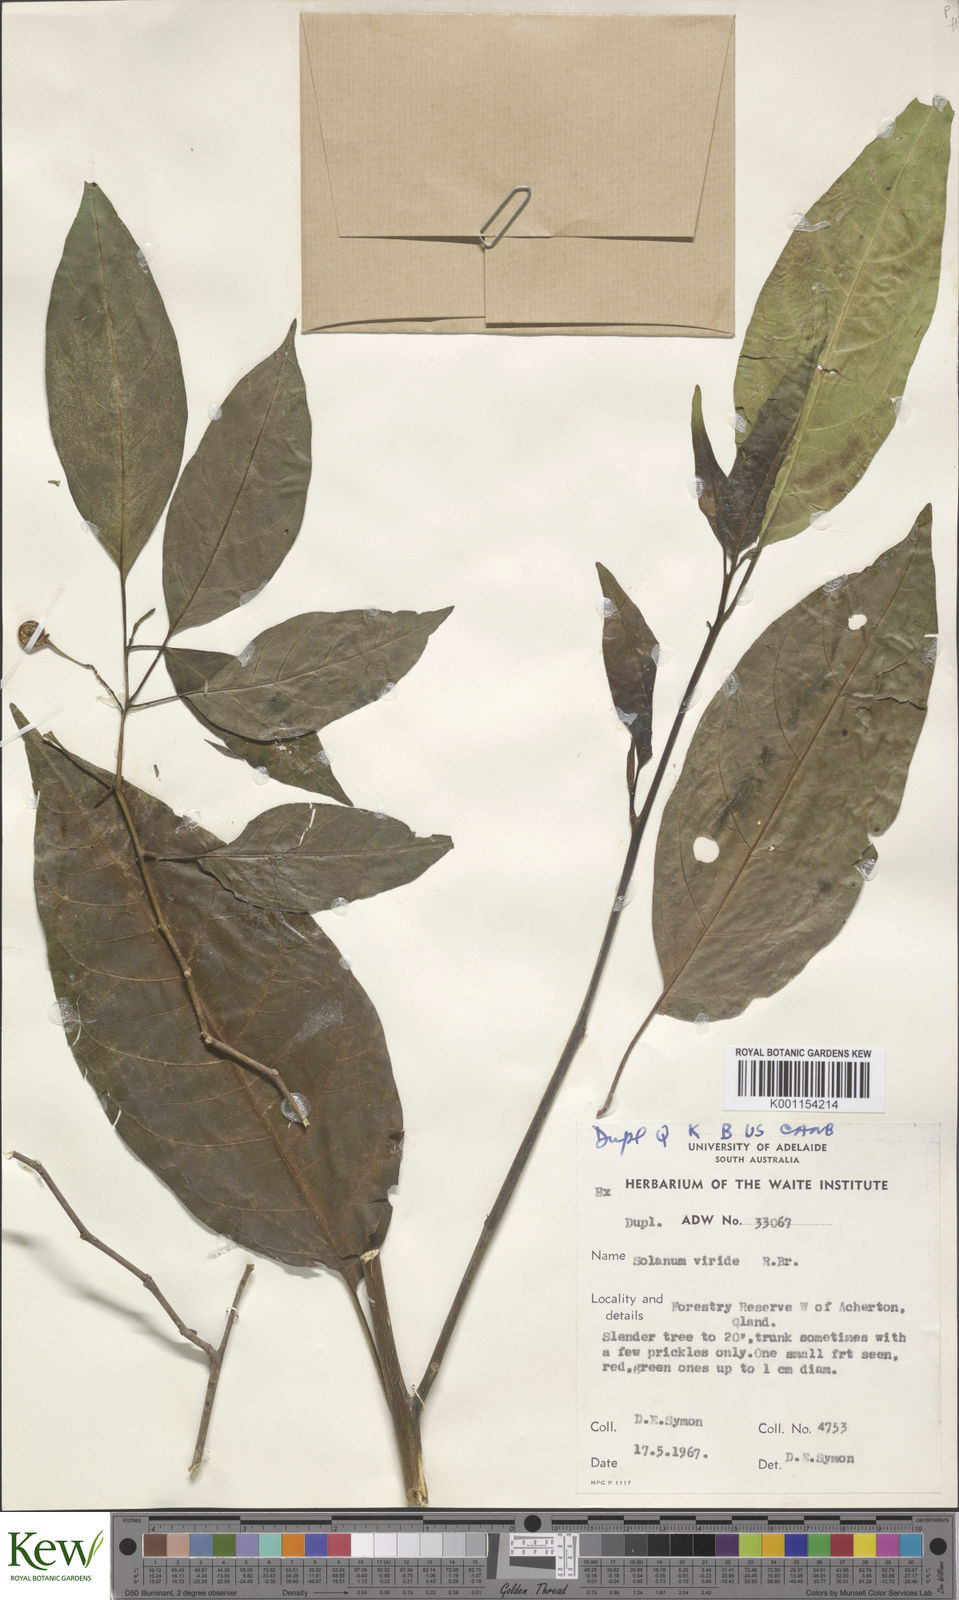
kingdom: Plantae
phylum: Tracheophyta
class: Magnoliopsida
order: Solanales
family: Solanaceae
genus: Solanum
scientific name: Solanum viridifolium
